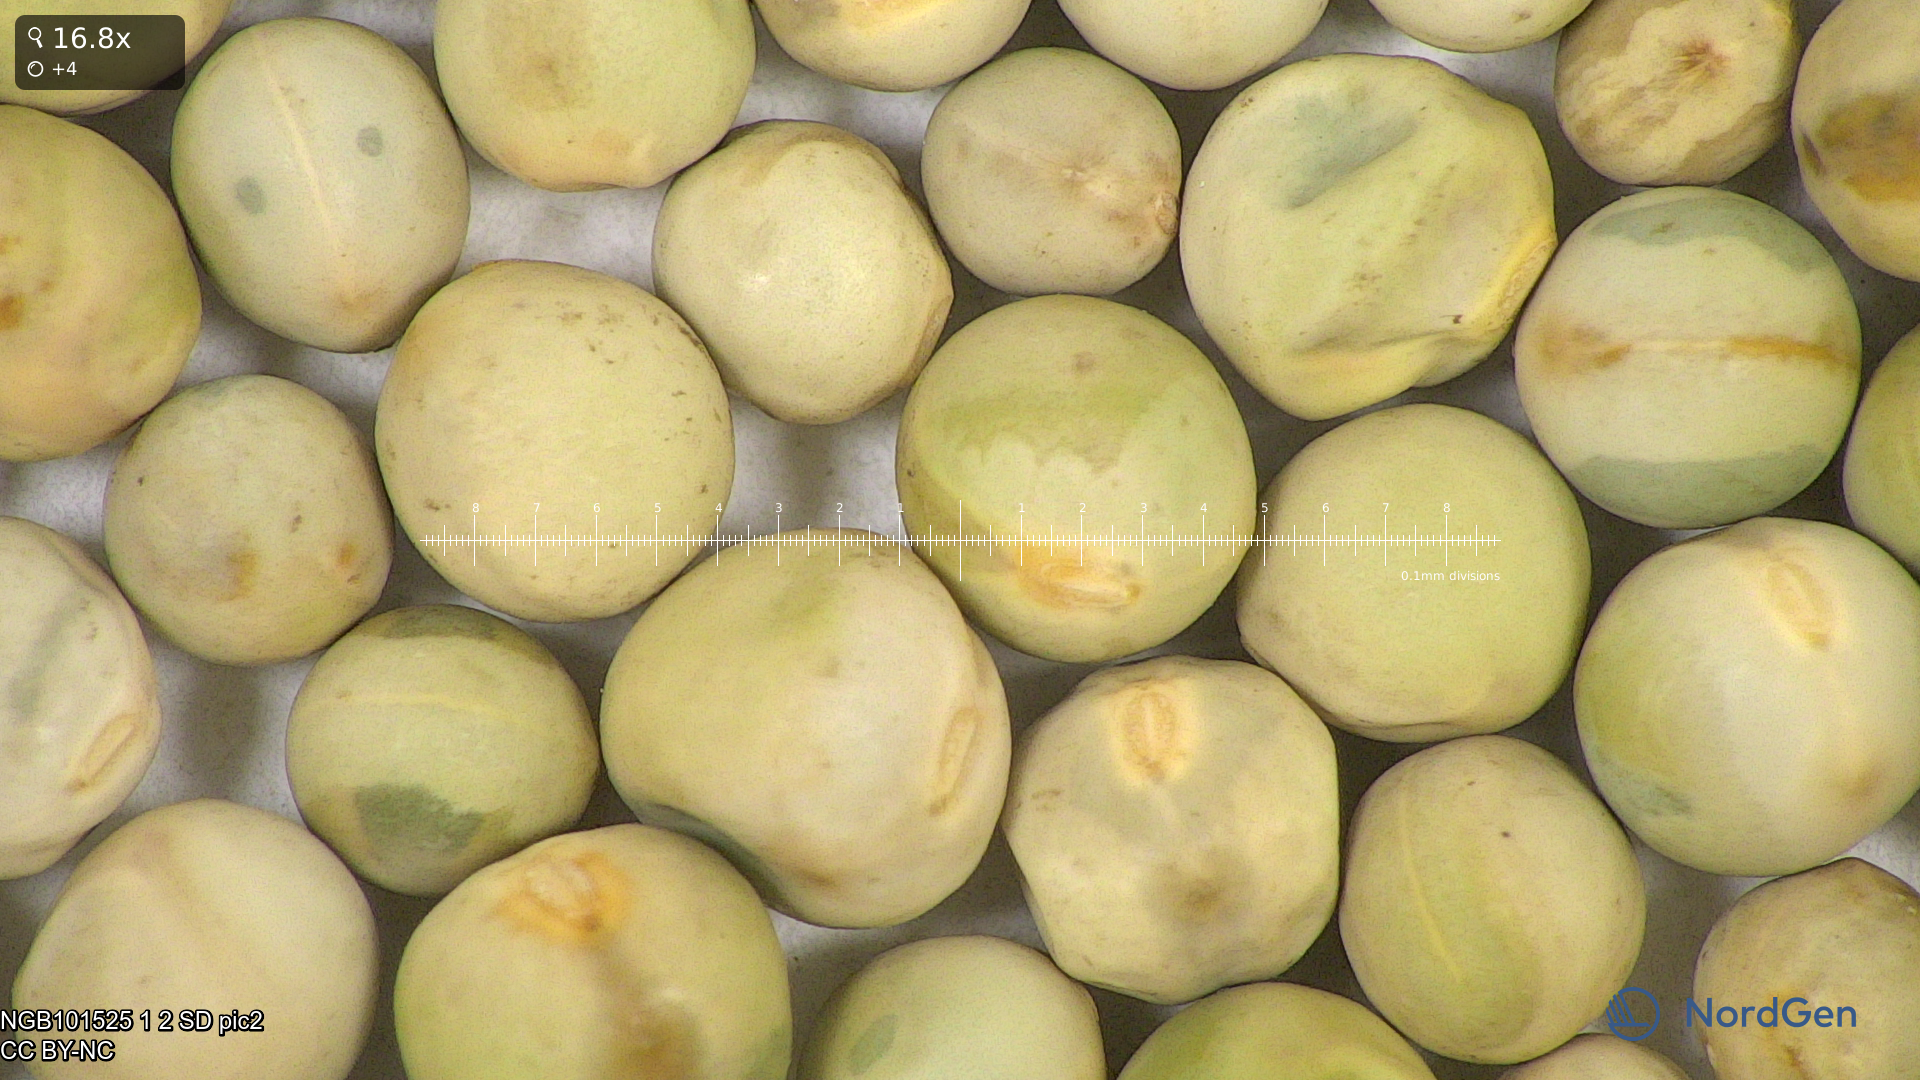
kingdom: Plantae
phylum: Tracheophyta
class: Magnoliopsida
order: Fabales
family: Fabaceae
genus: Lathyrus
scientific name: Lathyrus oleraceus
